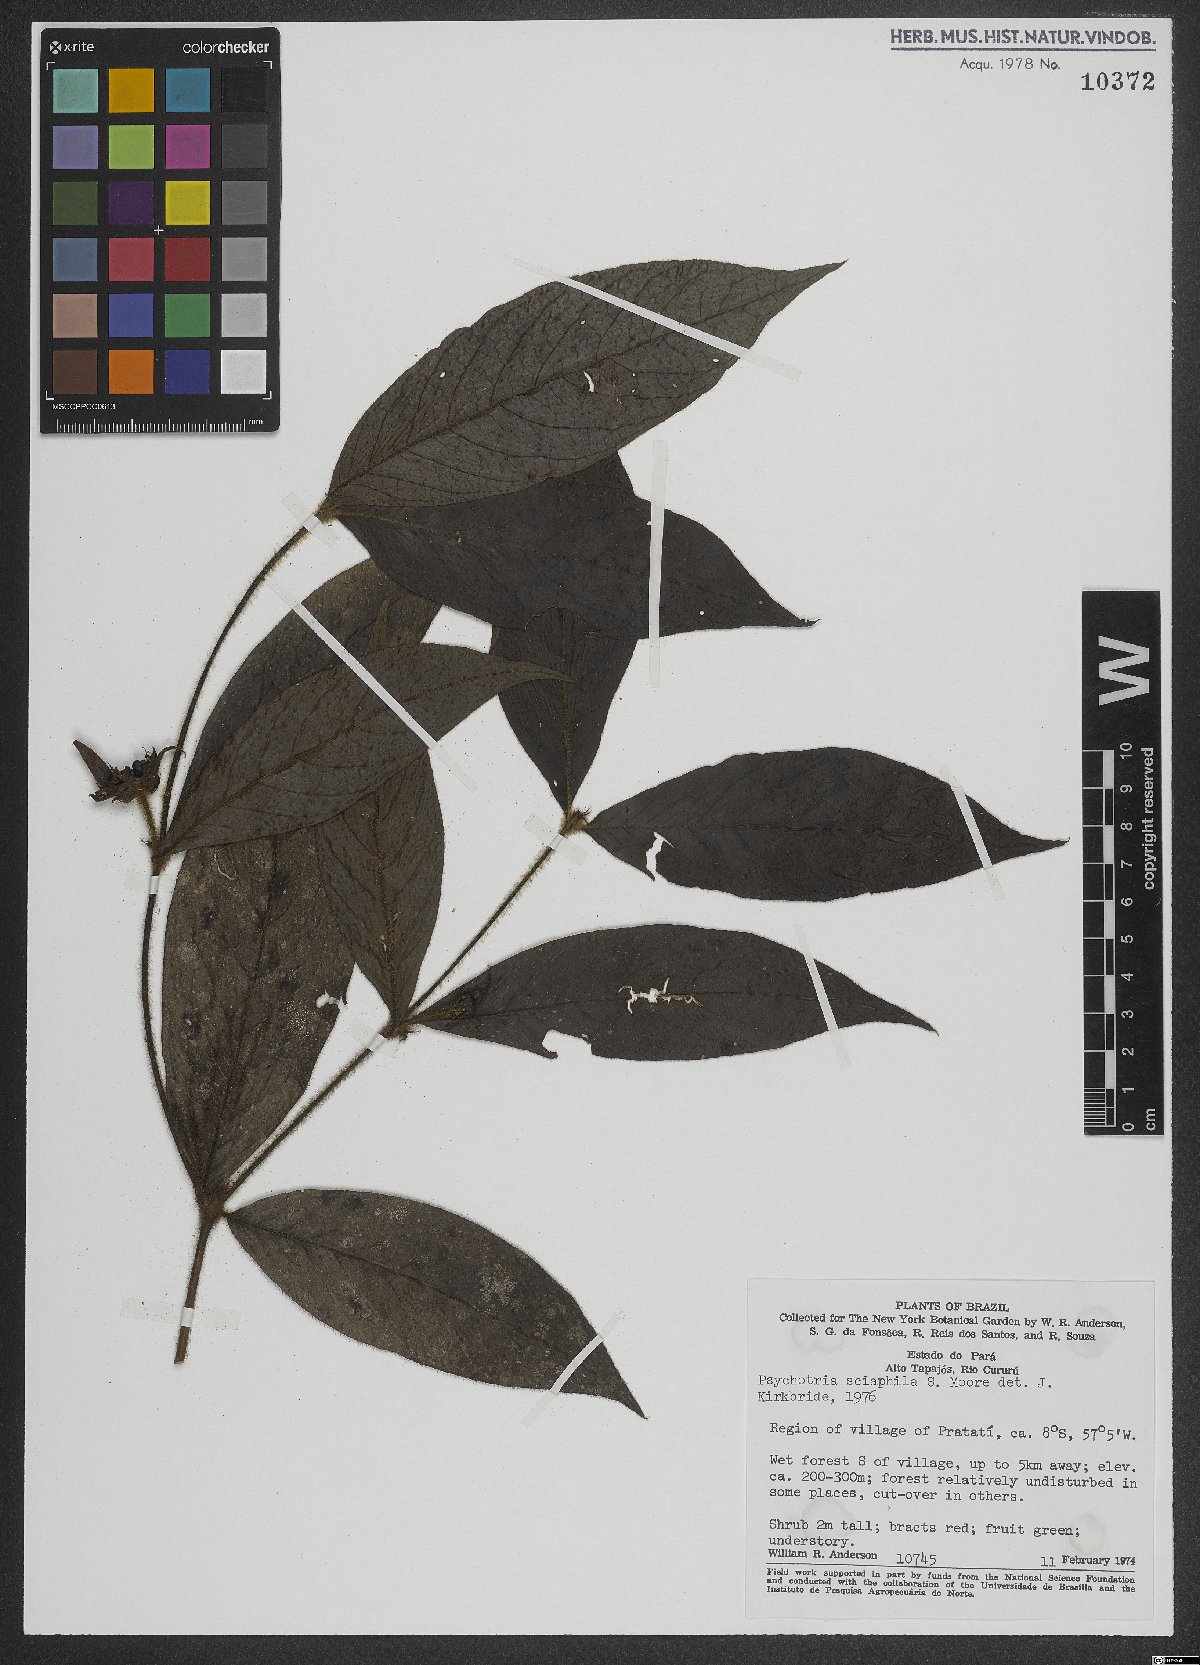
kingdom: Plantae
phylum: Tracheophyta
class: Magnoliopsida
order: Gentianales
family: Rubiaceae
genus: Palicourea
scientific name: Palicourea trichophora
